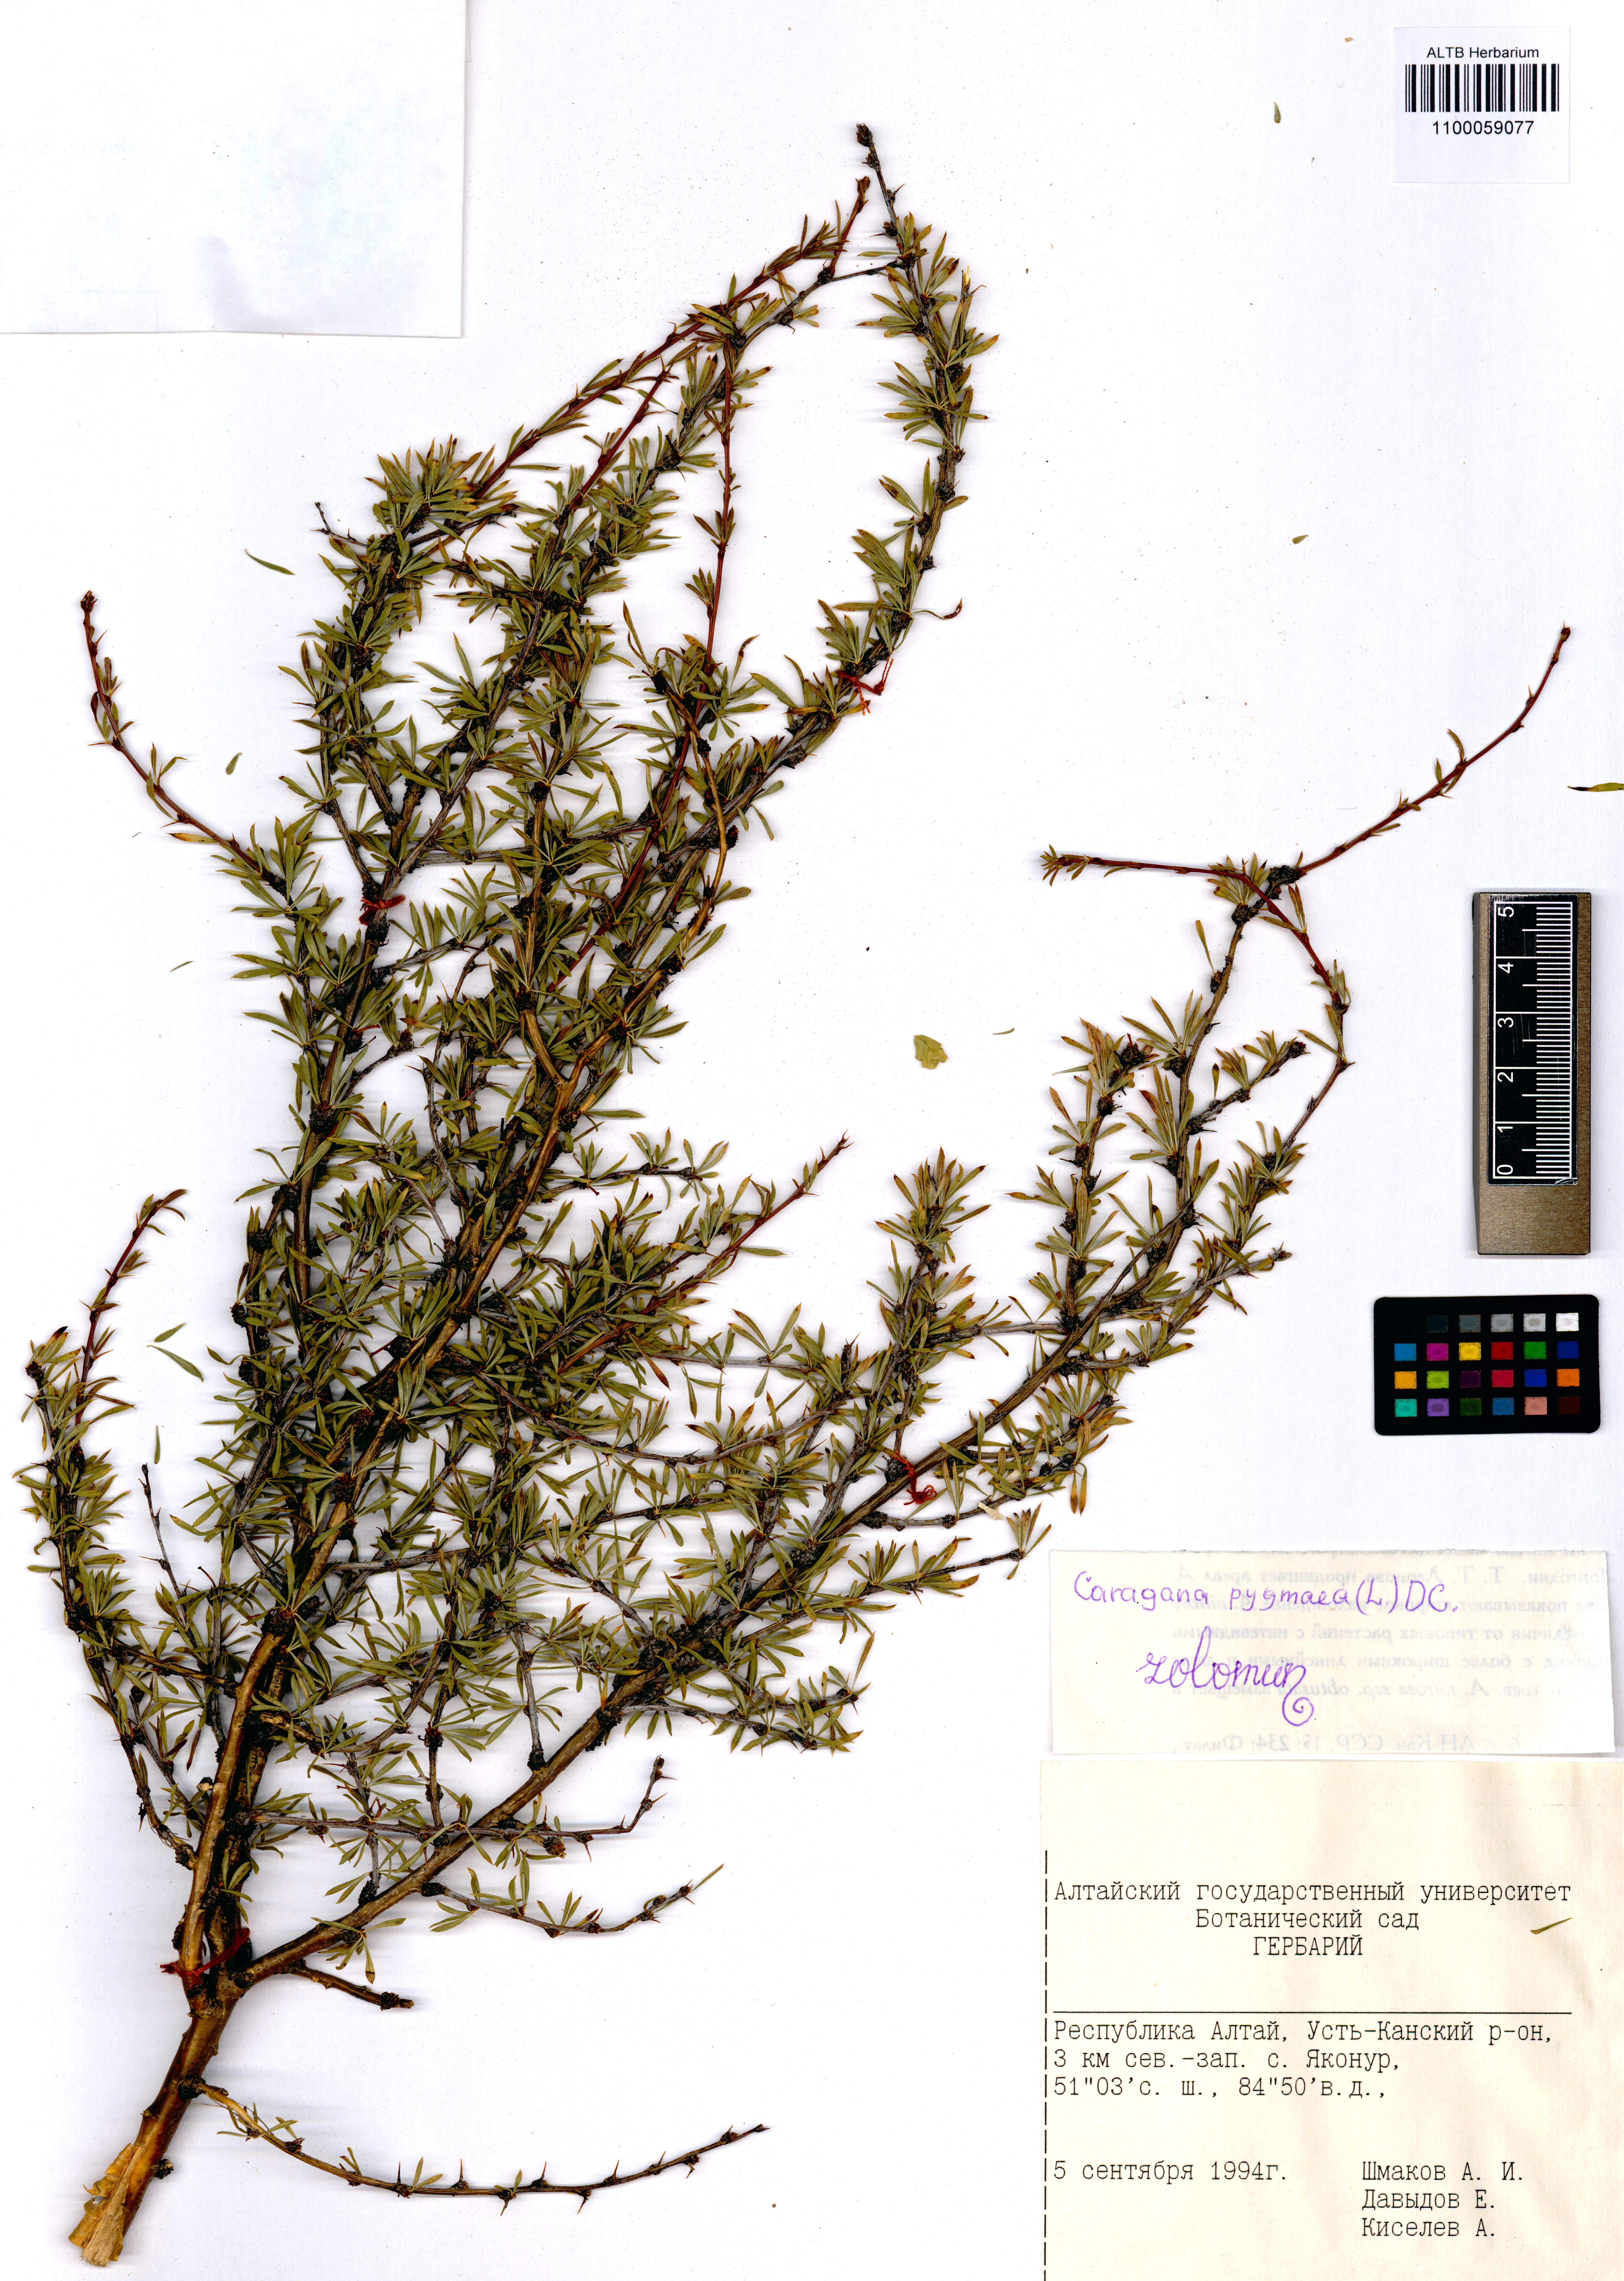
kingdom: Plantae
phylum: Tracheophyta
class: Magnoliopsida
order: Fabales
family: Fabaceae
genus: Caragana
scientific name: Caragana pygmaea
